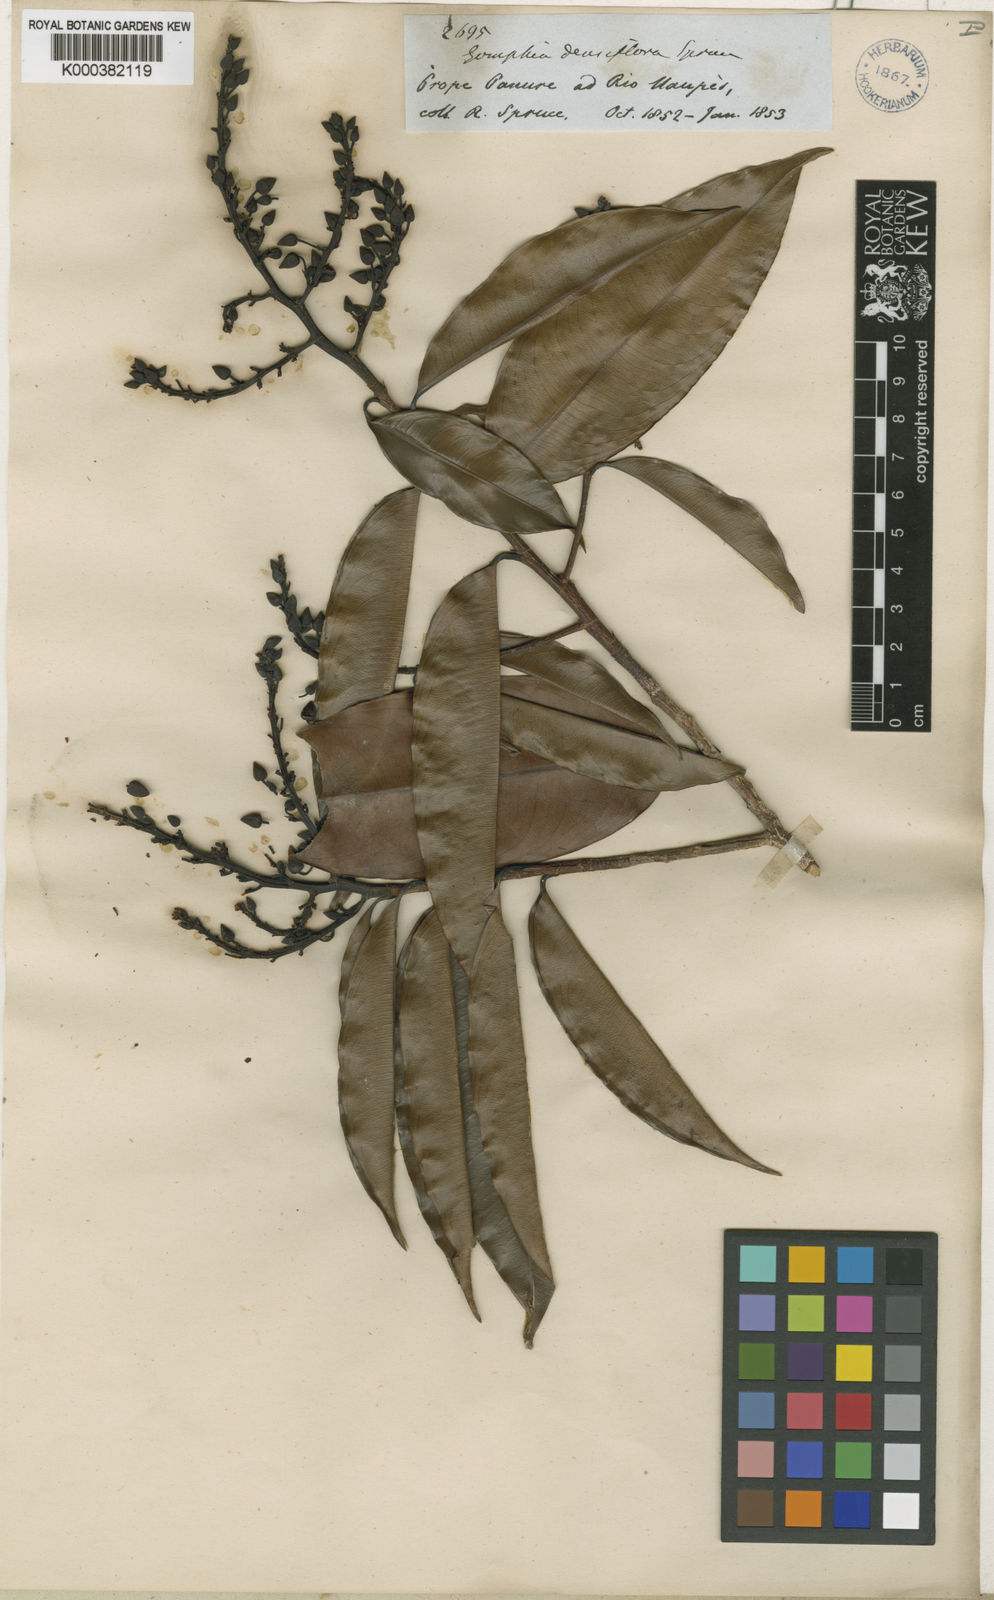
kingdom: Plantae
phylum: Tracheophyta
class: Magnoliopsida
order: Malpighiales
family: Ochnaceae
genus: Ouratea
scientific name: Ouratea
